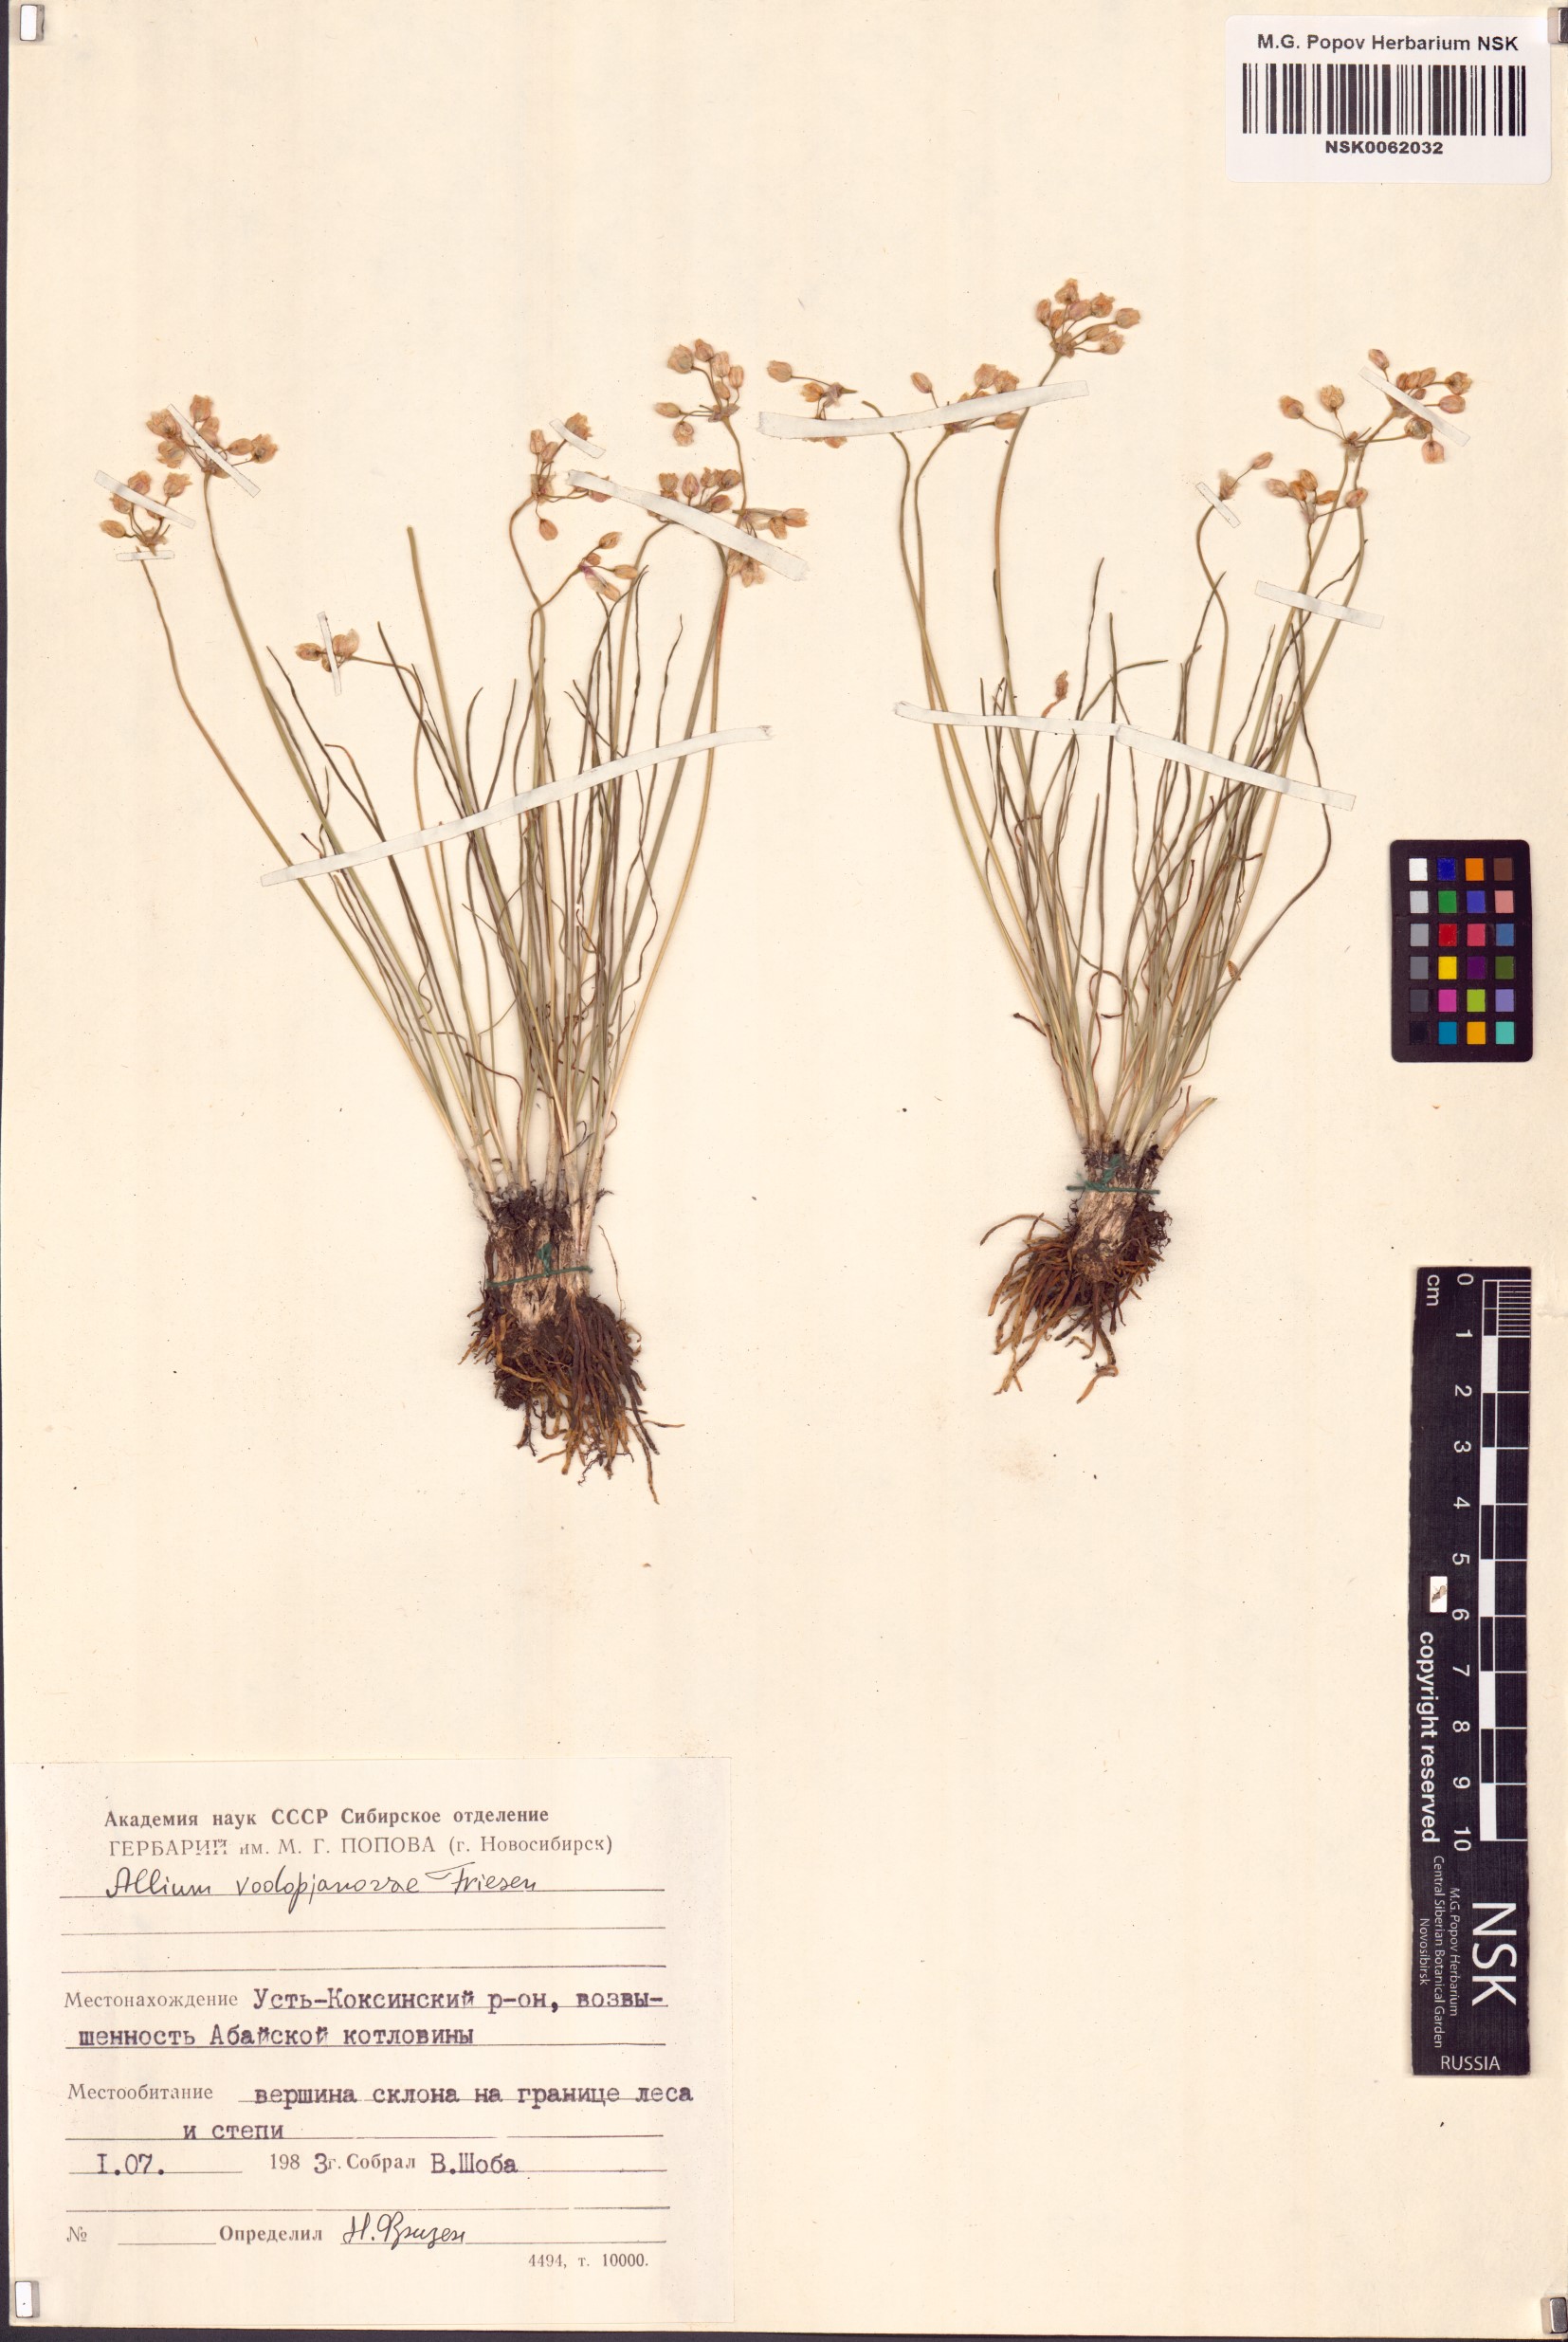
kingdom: Plantae
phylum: Tracheophyta
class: Liliopsida
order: Asparagales
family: Amaryllidaceae
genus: Allium
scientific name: Allium vodopjanovae
